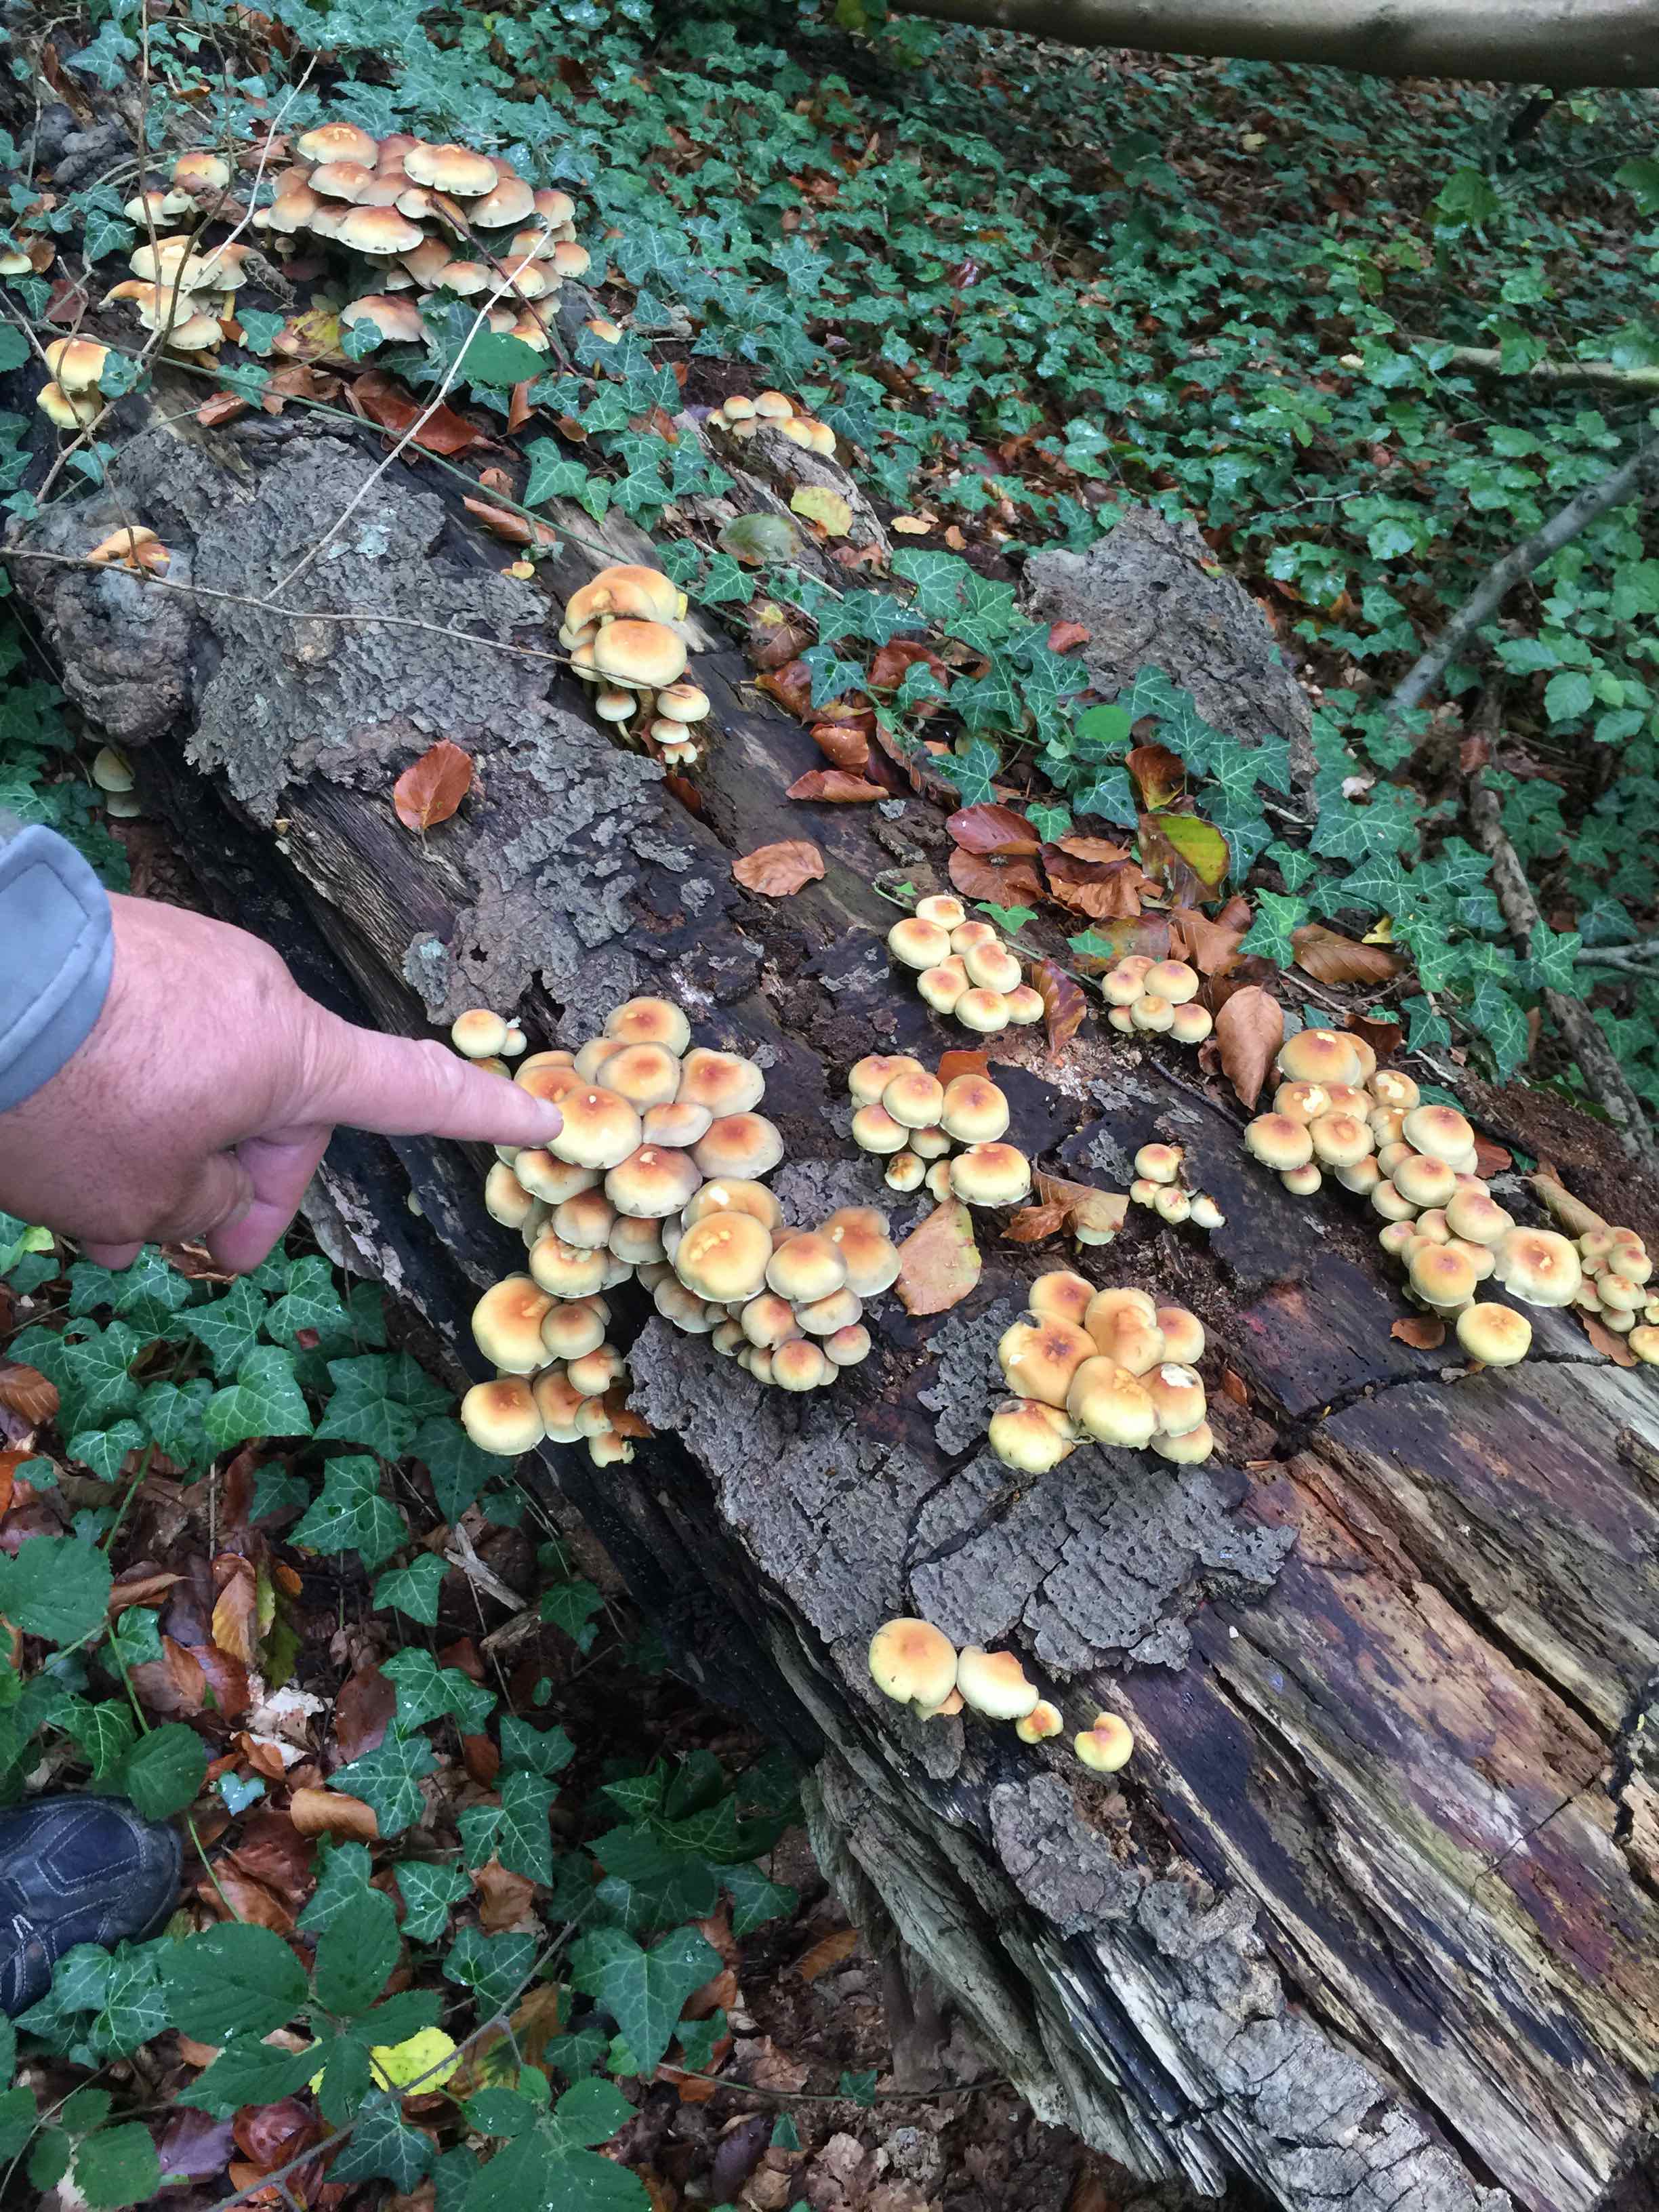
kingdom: Fungi
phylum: Basidiomycota
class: Agaricomycetes
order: Agaricales
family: Strophariaceae
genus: Hypholoma
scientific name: Hypholoma fasciculare
